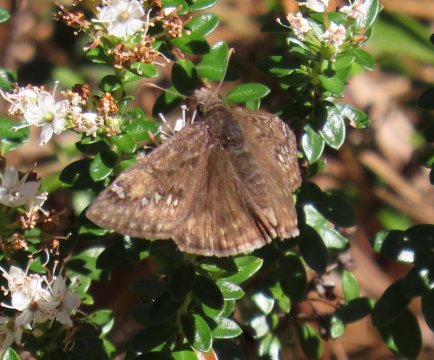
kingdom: Animalia
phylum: Arthropoda
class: Insecta
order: Lepidoptera
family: Hesperiidae
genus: Gesta
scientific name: Gesta
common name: Juvenal's Duskywing
